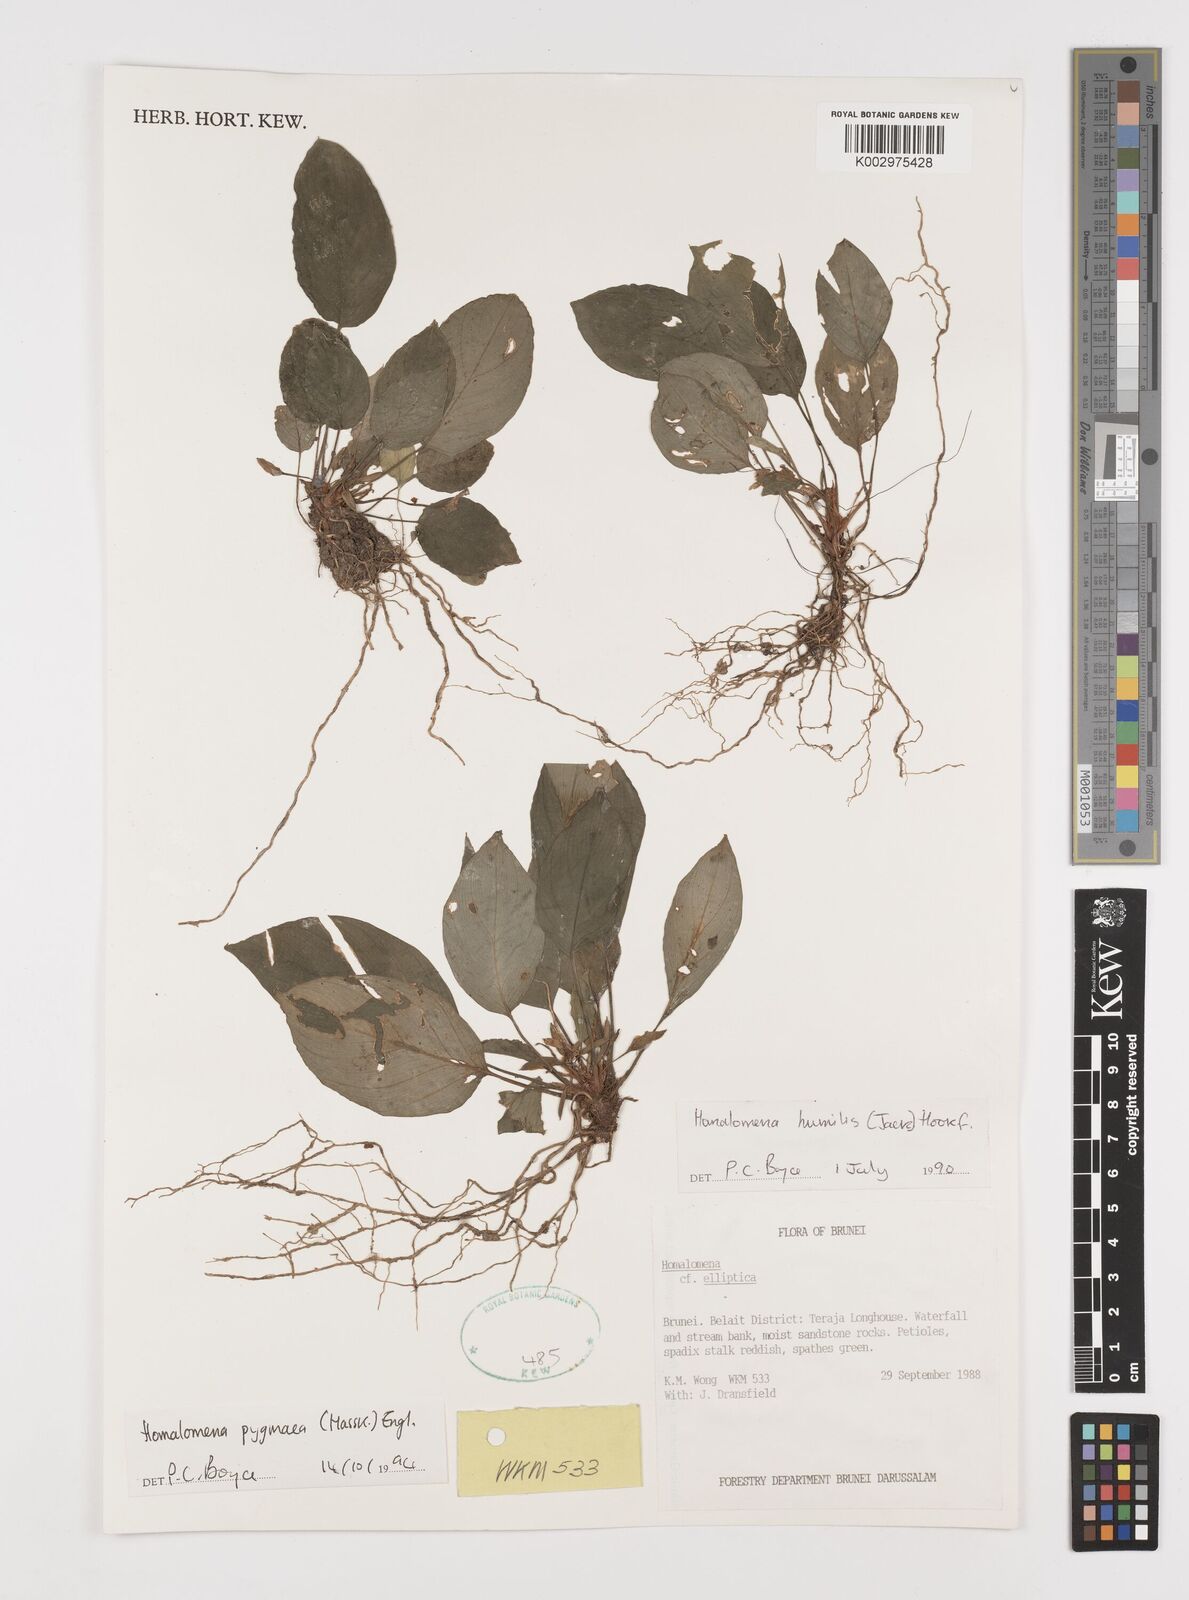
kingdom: Plantae
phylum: Tracheophyta
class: Liliopsida
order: Alismatales
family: Araceae
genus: Homalomena
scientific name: Homalomena humilis
